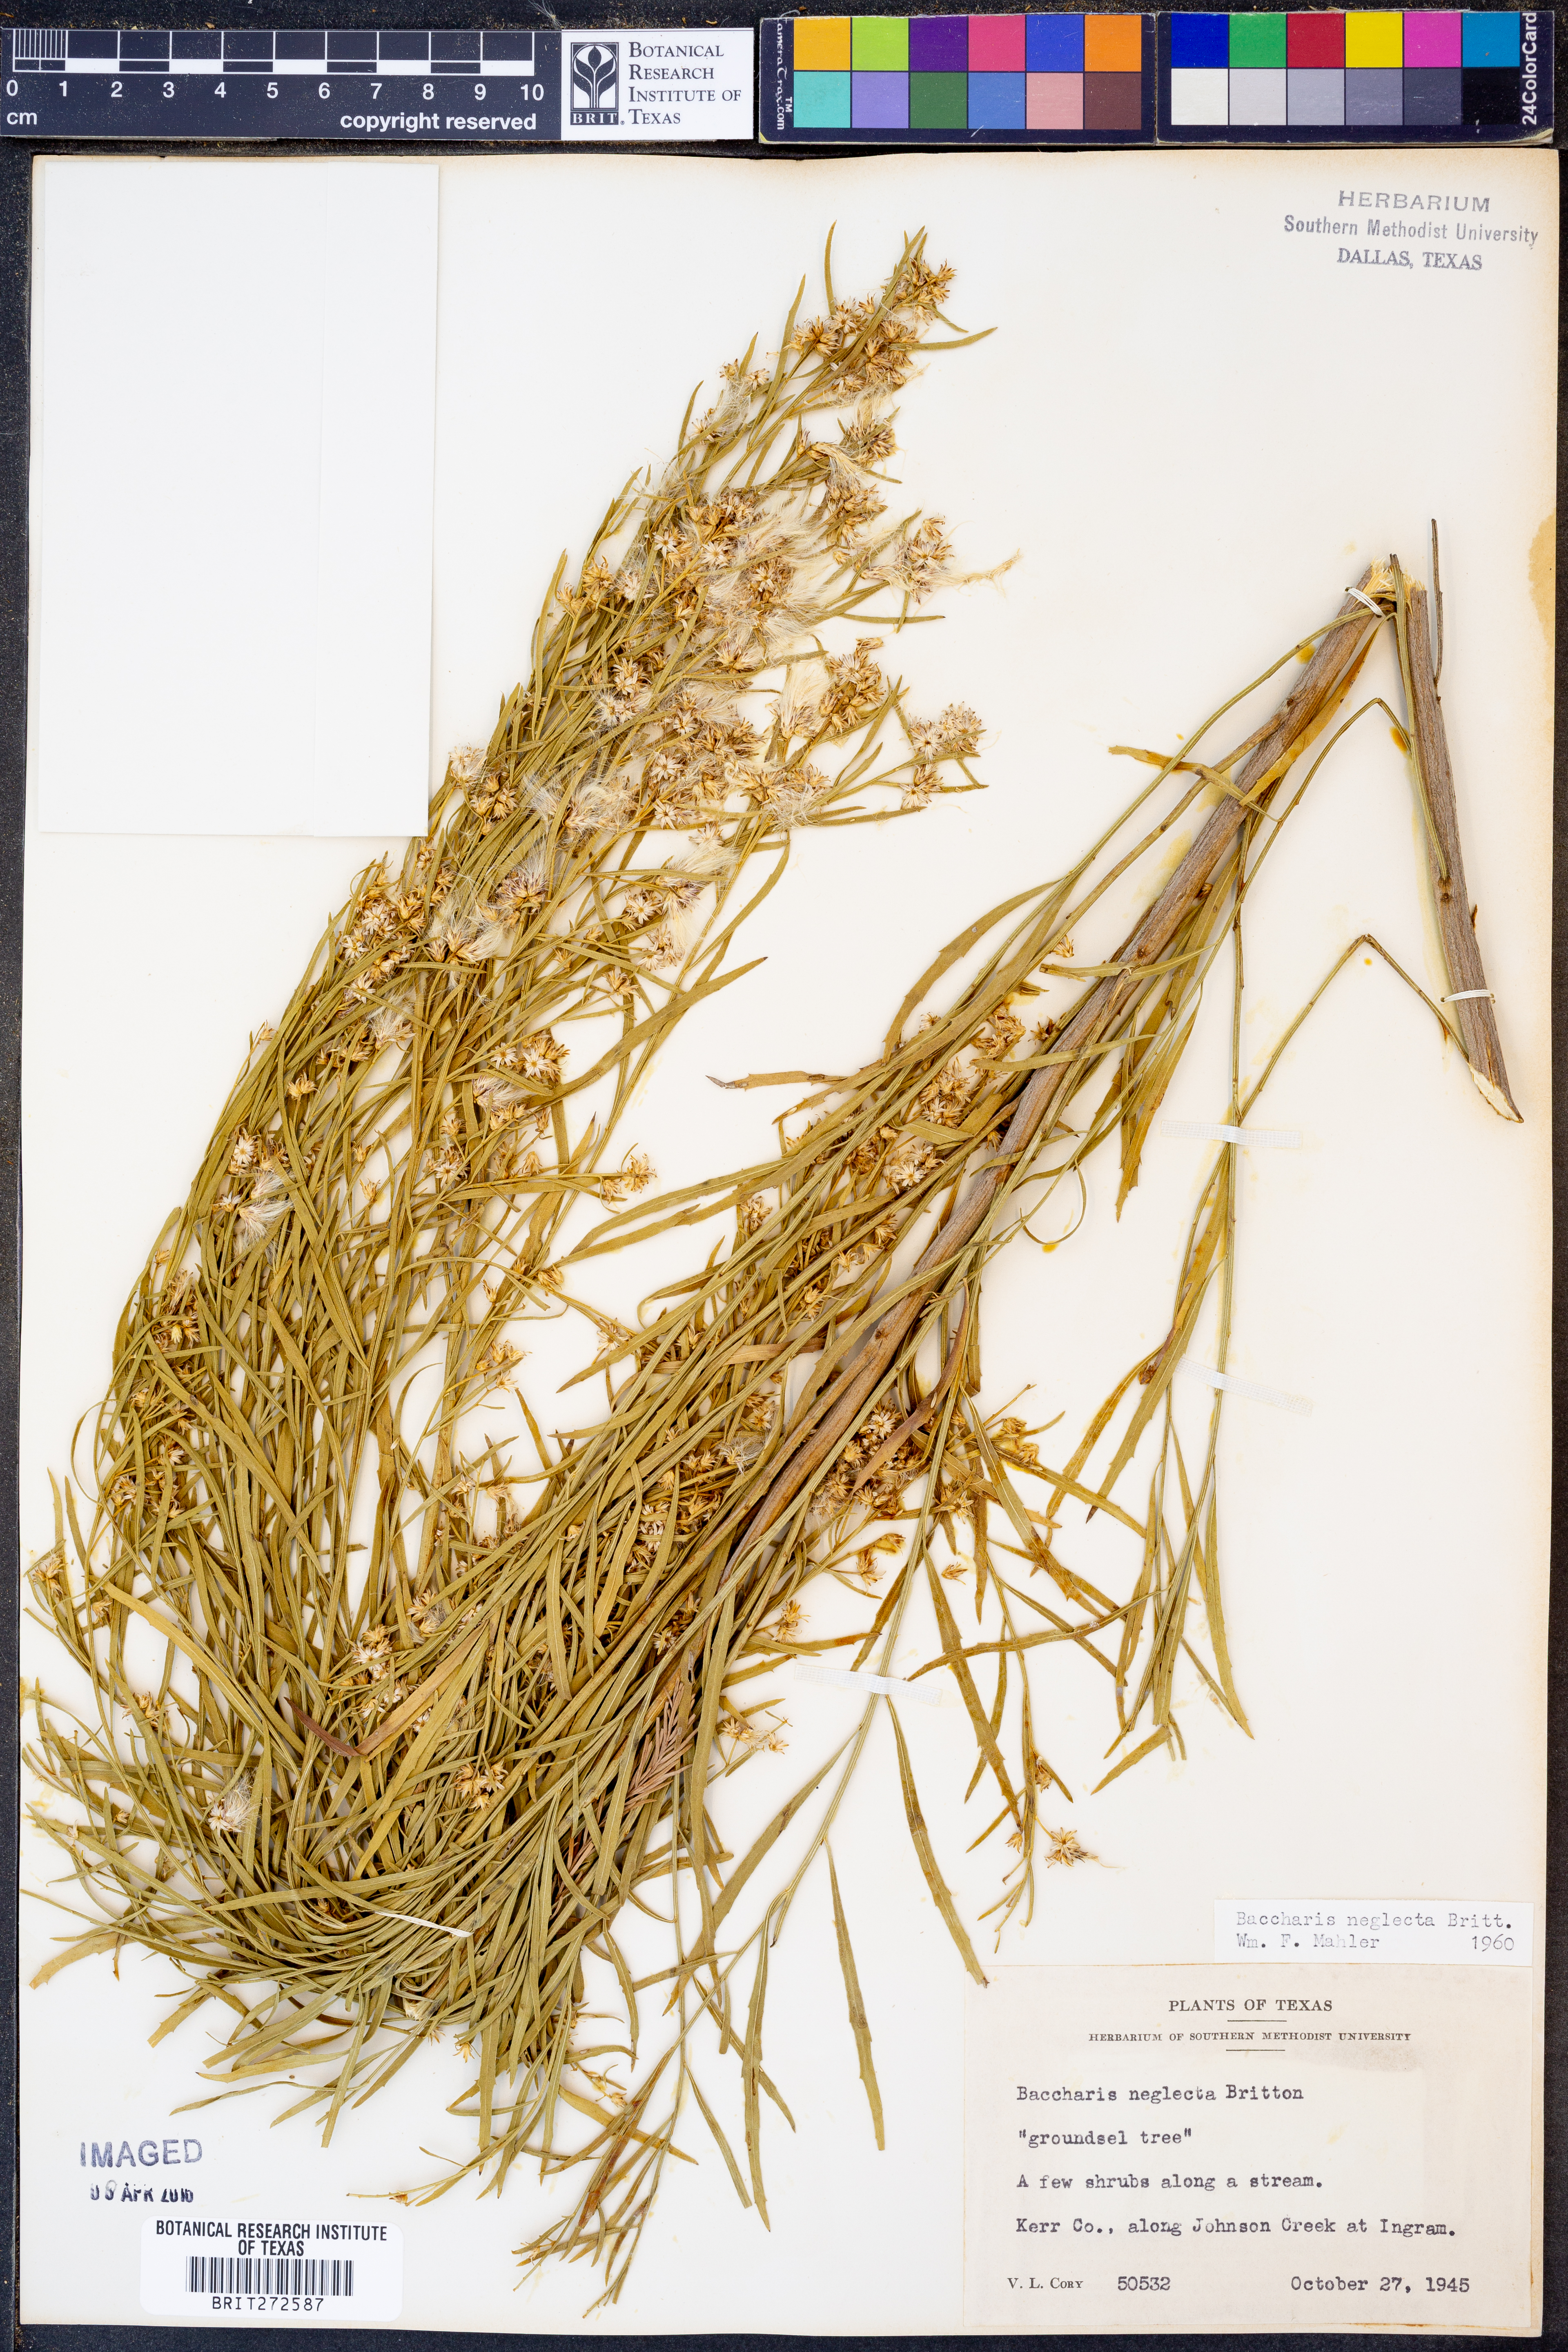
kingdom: Plantae
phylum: Tracheophyta
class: Magnoliopsida
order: Asterales
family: Asteraceae
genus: Baccharis
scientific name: Baccharis neglecta
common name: Roosevelt-weed
